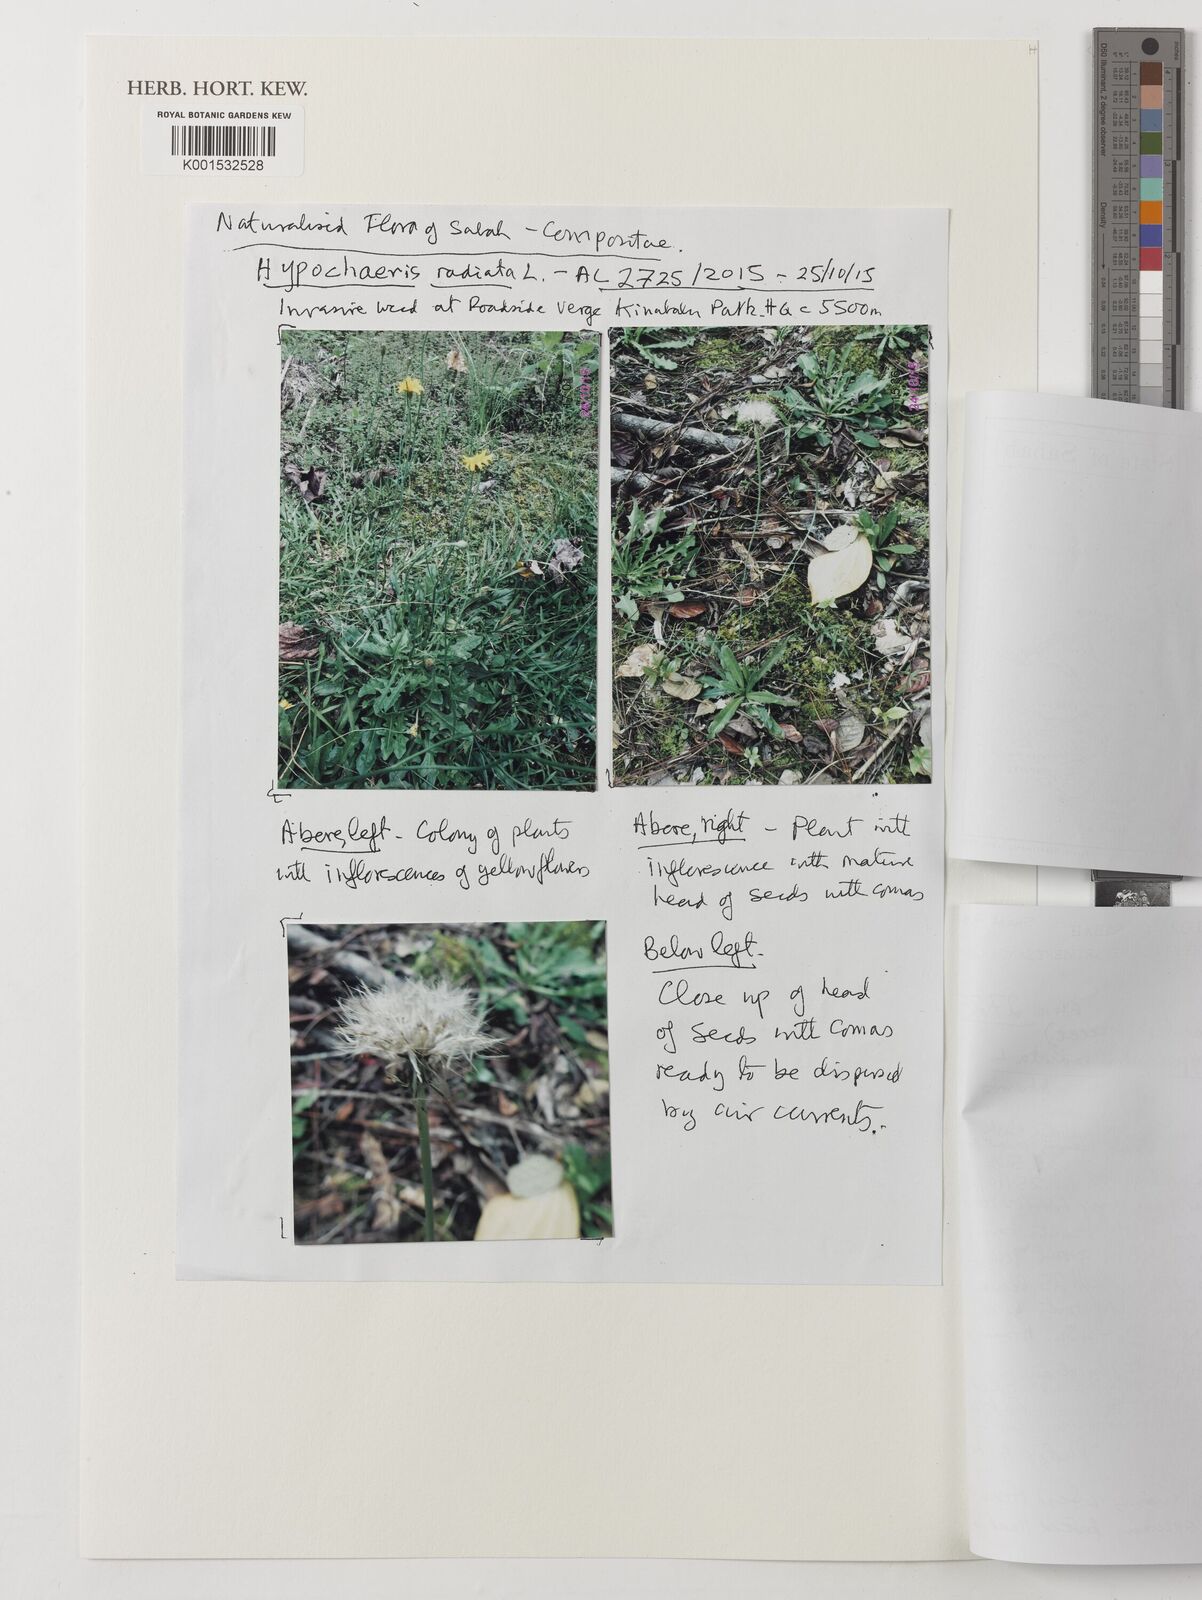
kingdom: Plantae
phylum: Tracheophyta
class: Magnoliopsida
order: Asterales
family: Asteraceae
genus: Hypochaeris
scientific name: Hypochaeris radicata
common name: Flatweed
